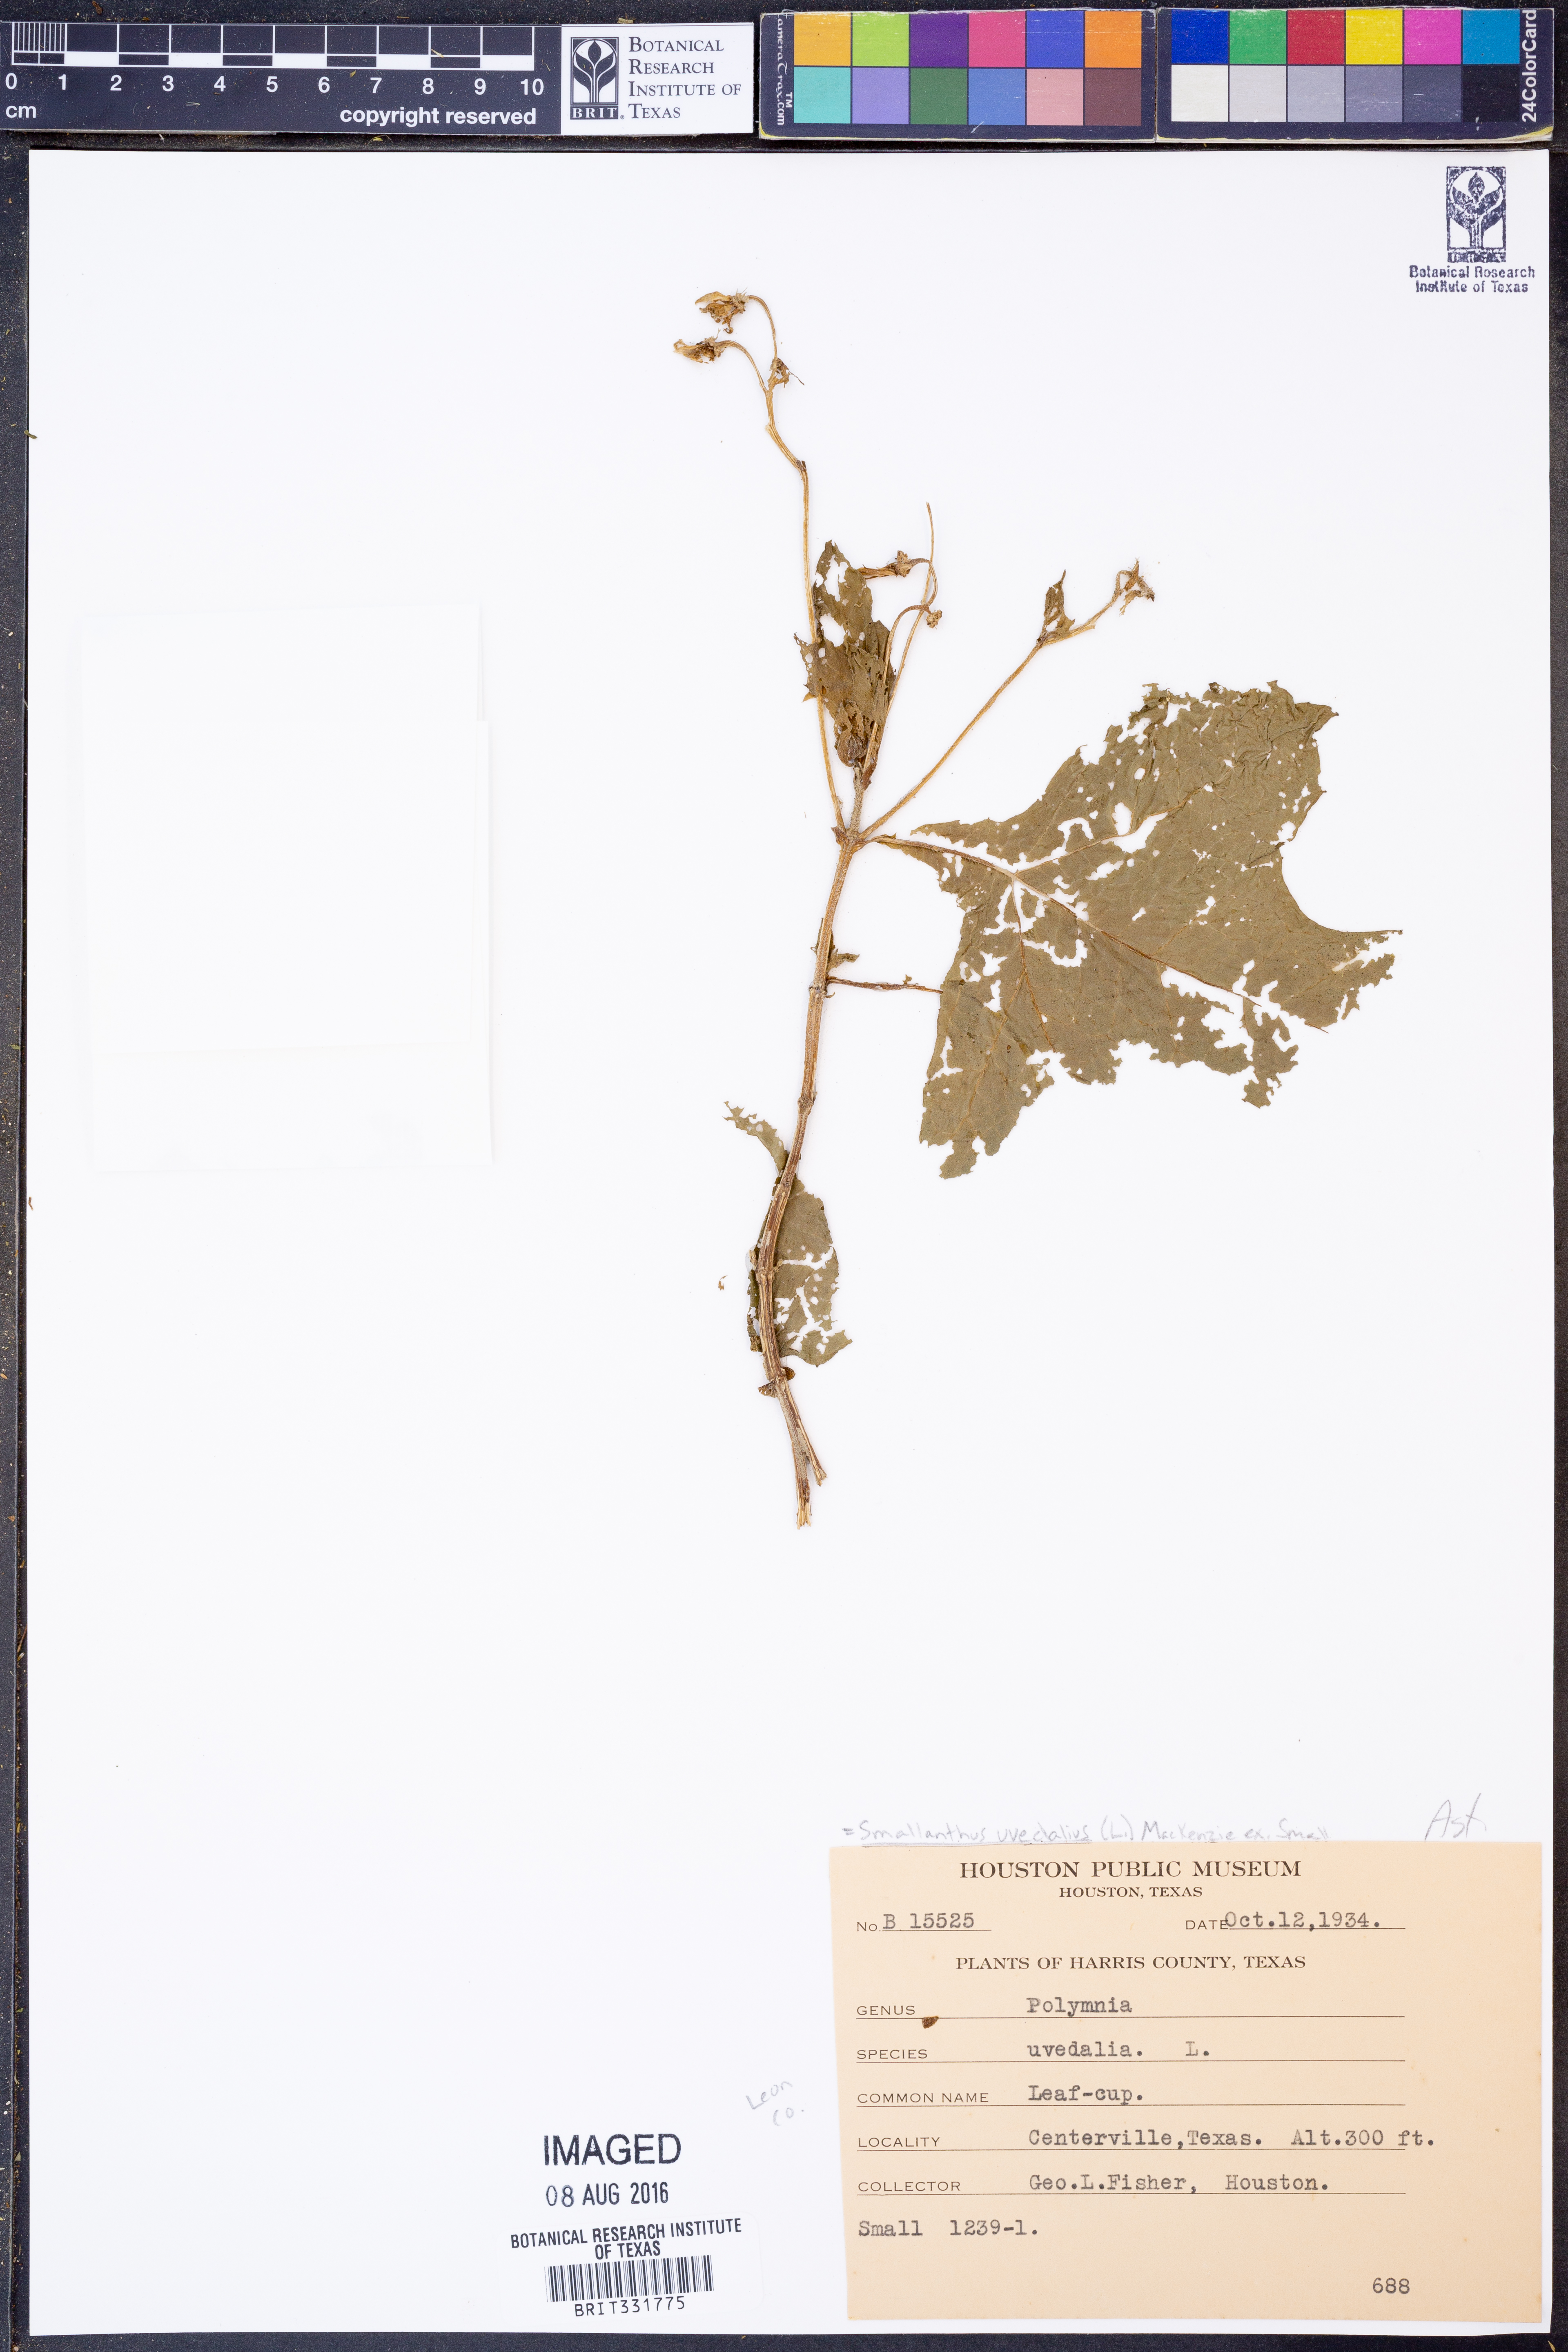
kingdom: Plantae
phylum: Tracheophyta
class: Magnoliopsida
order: Asterales
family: Asteraceae
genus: Smallanthus
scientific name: Smallanthus uvedalia
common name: Bear's-foot
